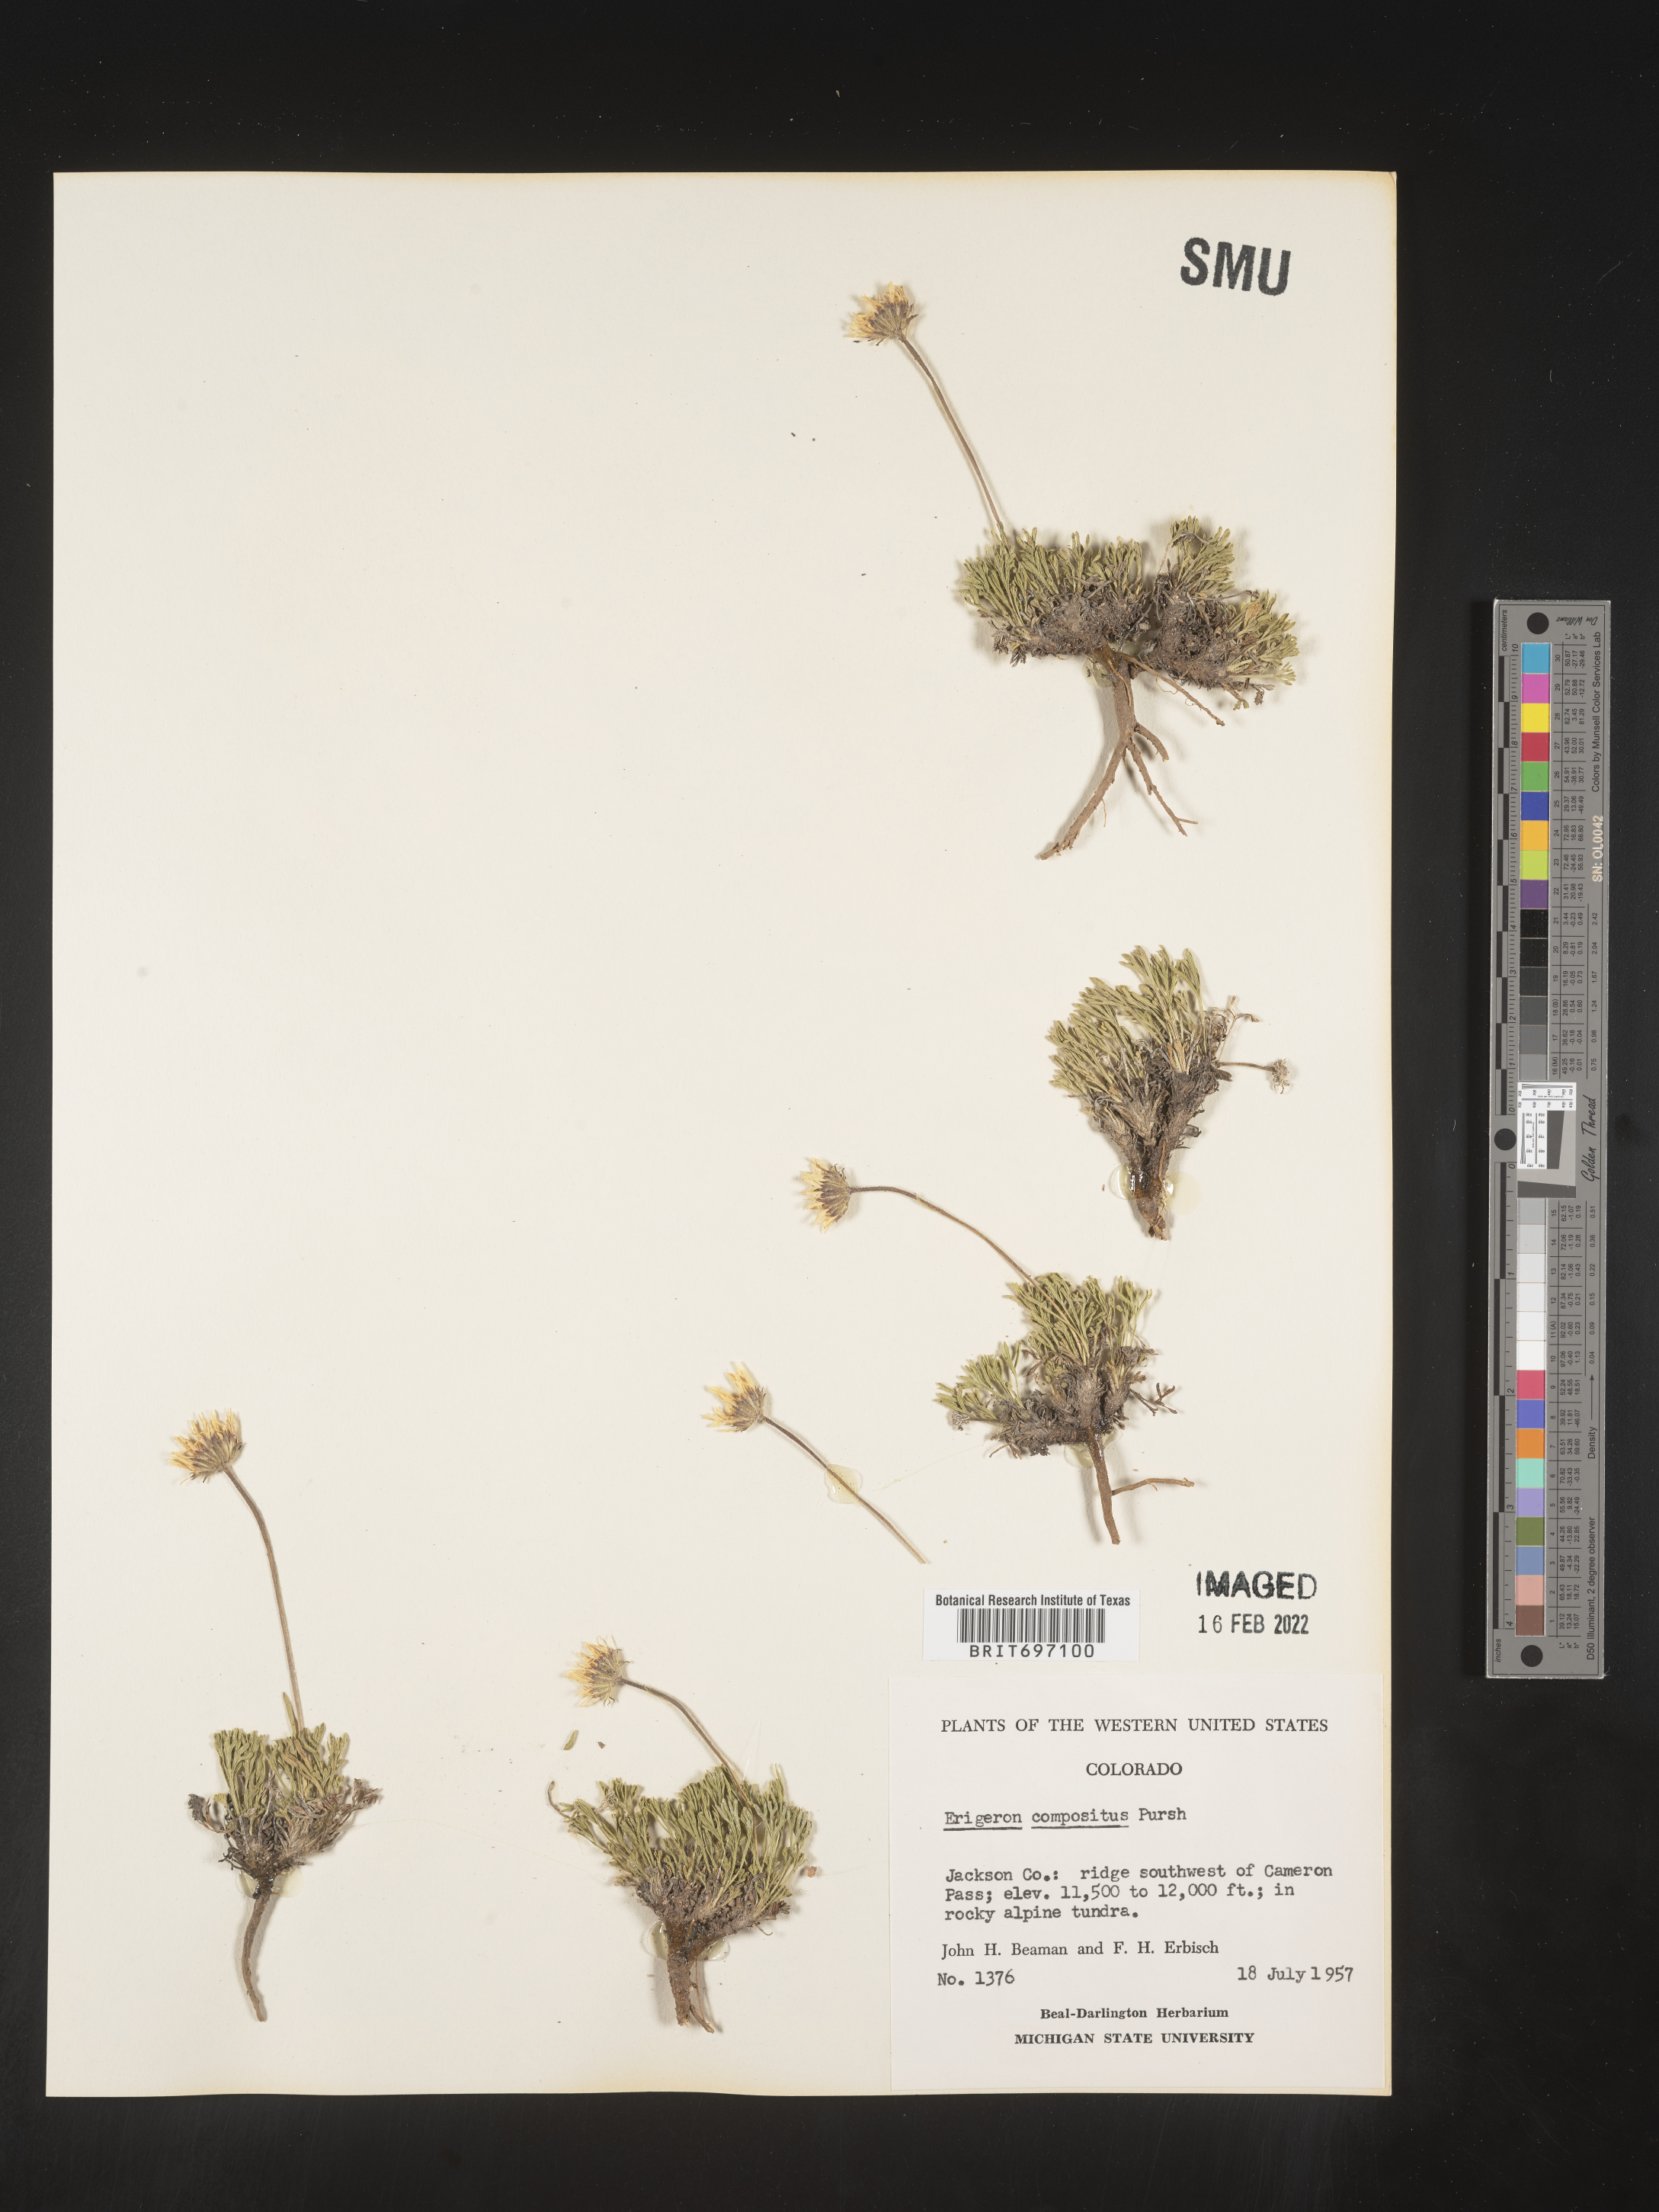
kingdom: Plantae
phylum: Tracheophyta
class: Magnoliopsida
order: Asterales
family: Asteraceae
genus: Erigeron
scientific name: Erigeron compositus
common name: Dwarf mountain fleabane
